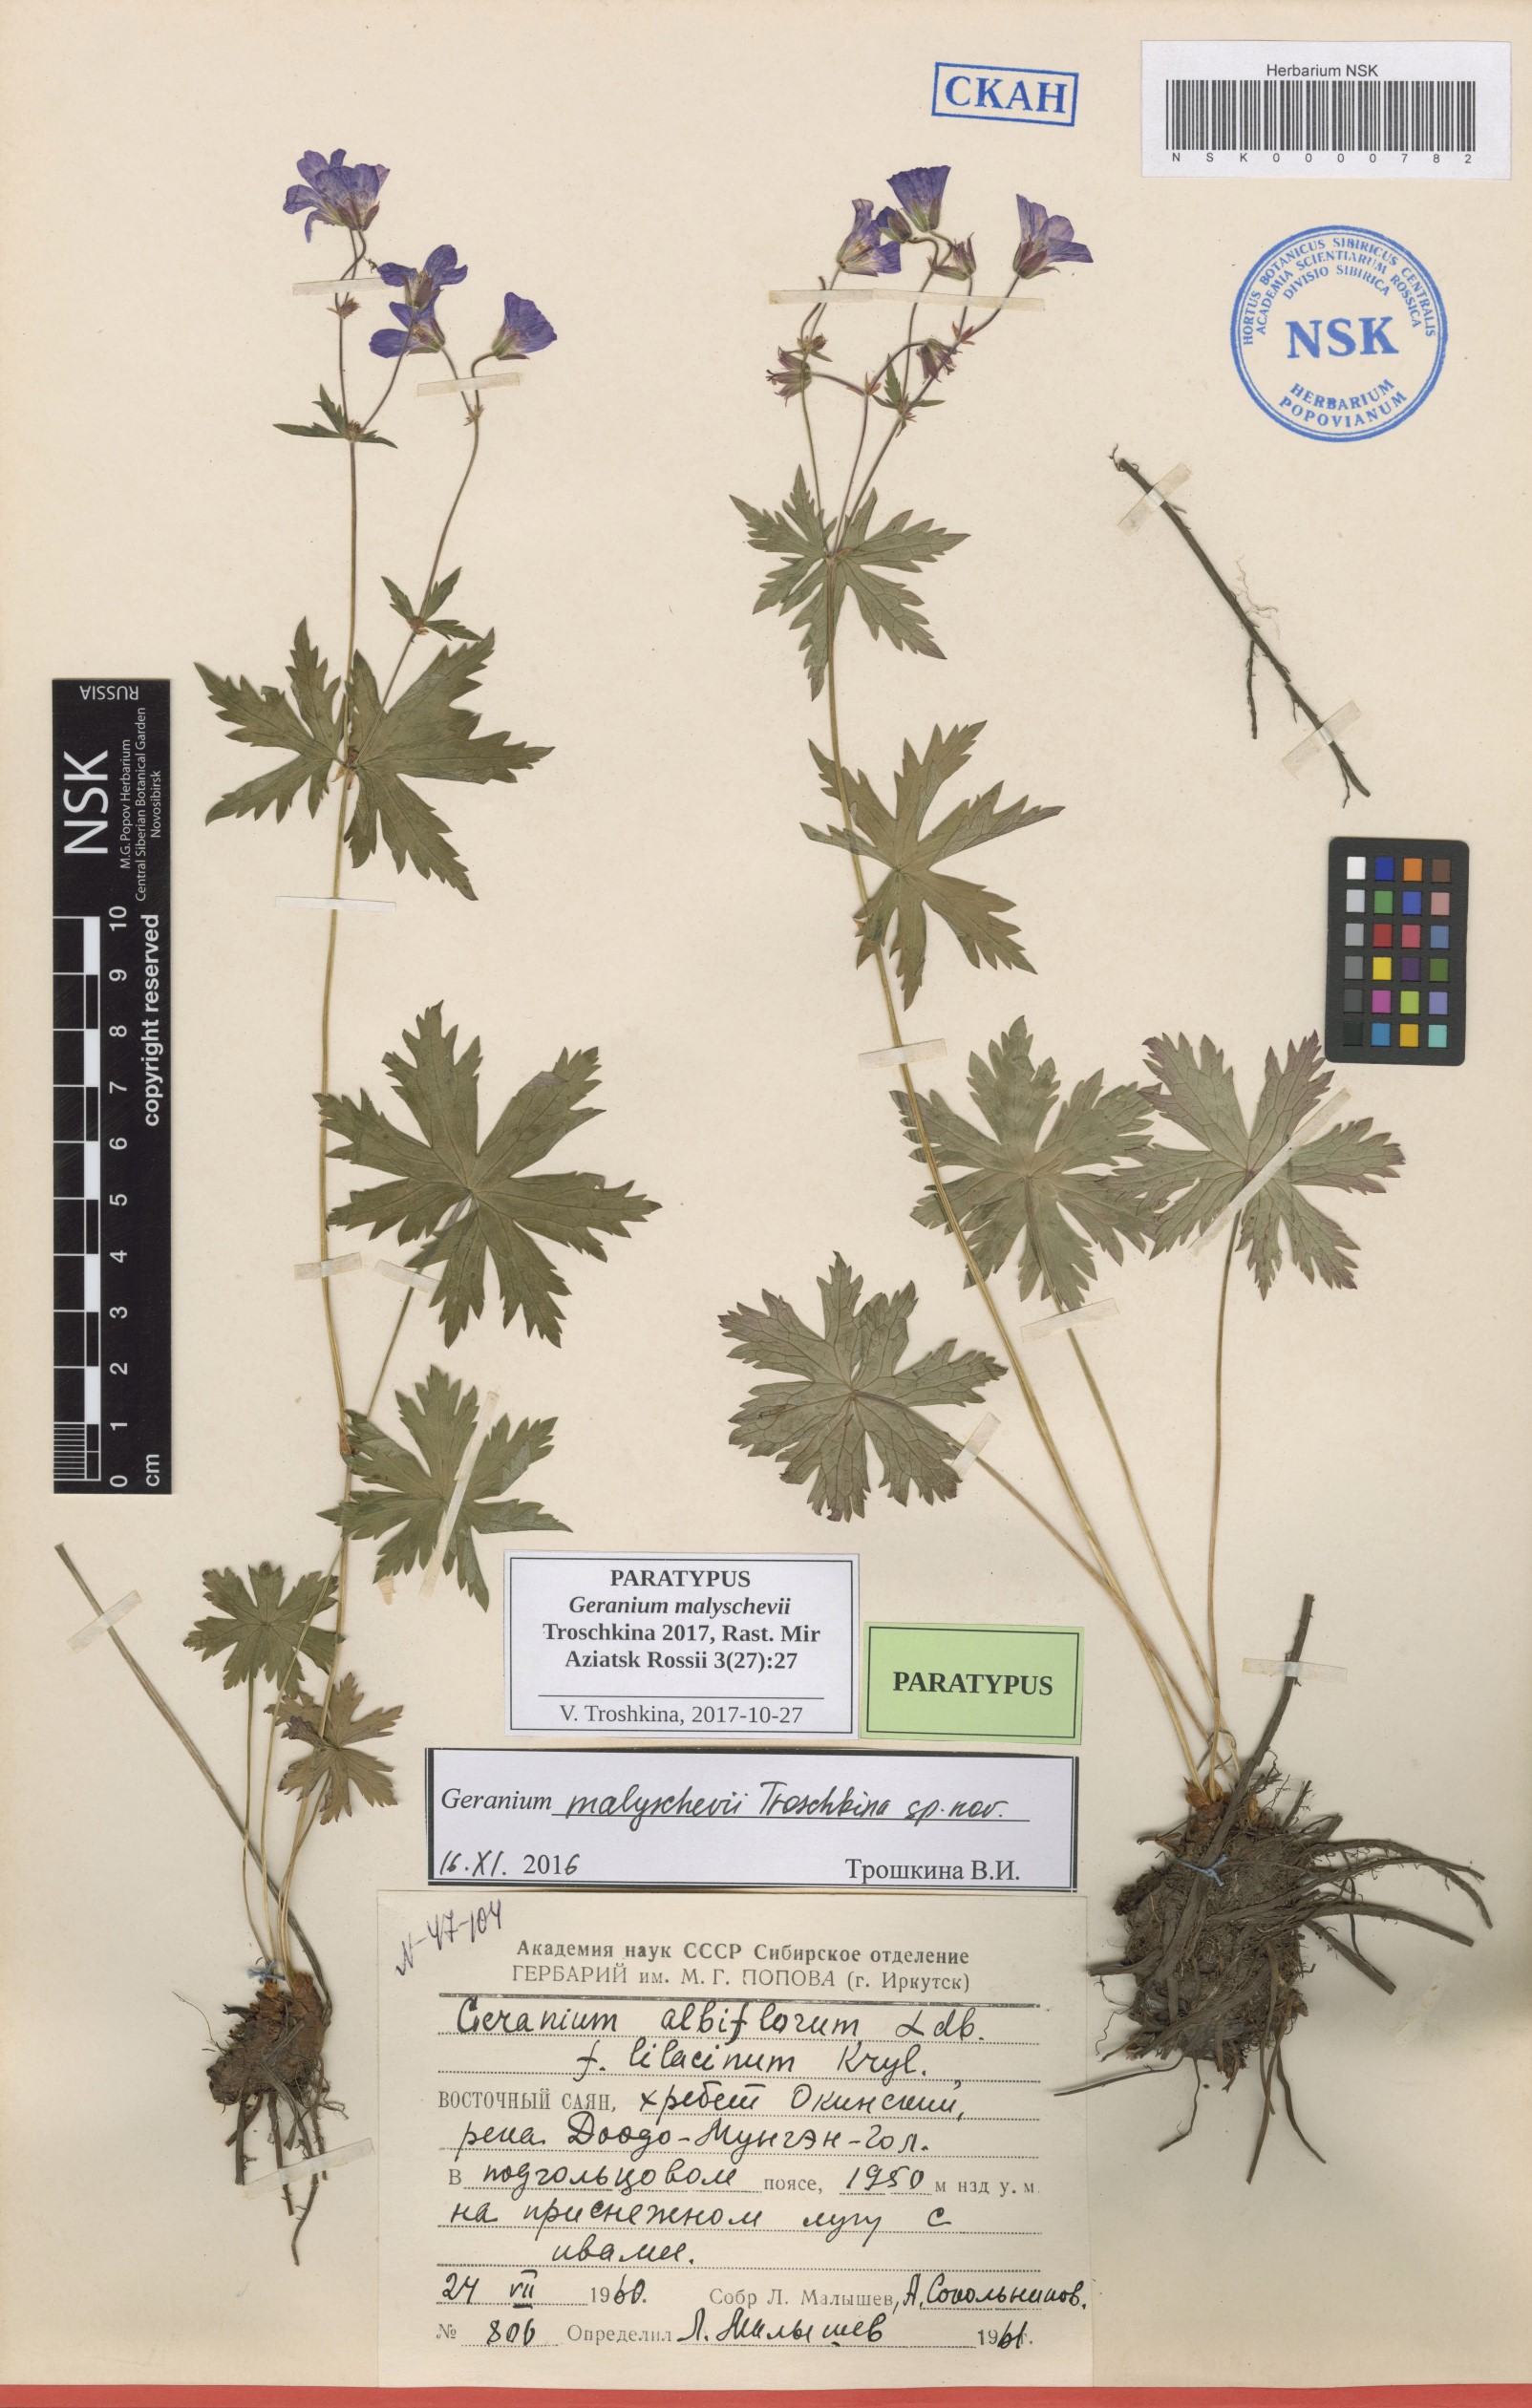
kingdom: Plantae
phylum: Tracheophyta
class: Magnoliopsida
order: Geraniales
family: Geraniaceae
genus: Geranium
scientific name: Geranium malyschevii
